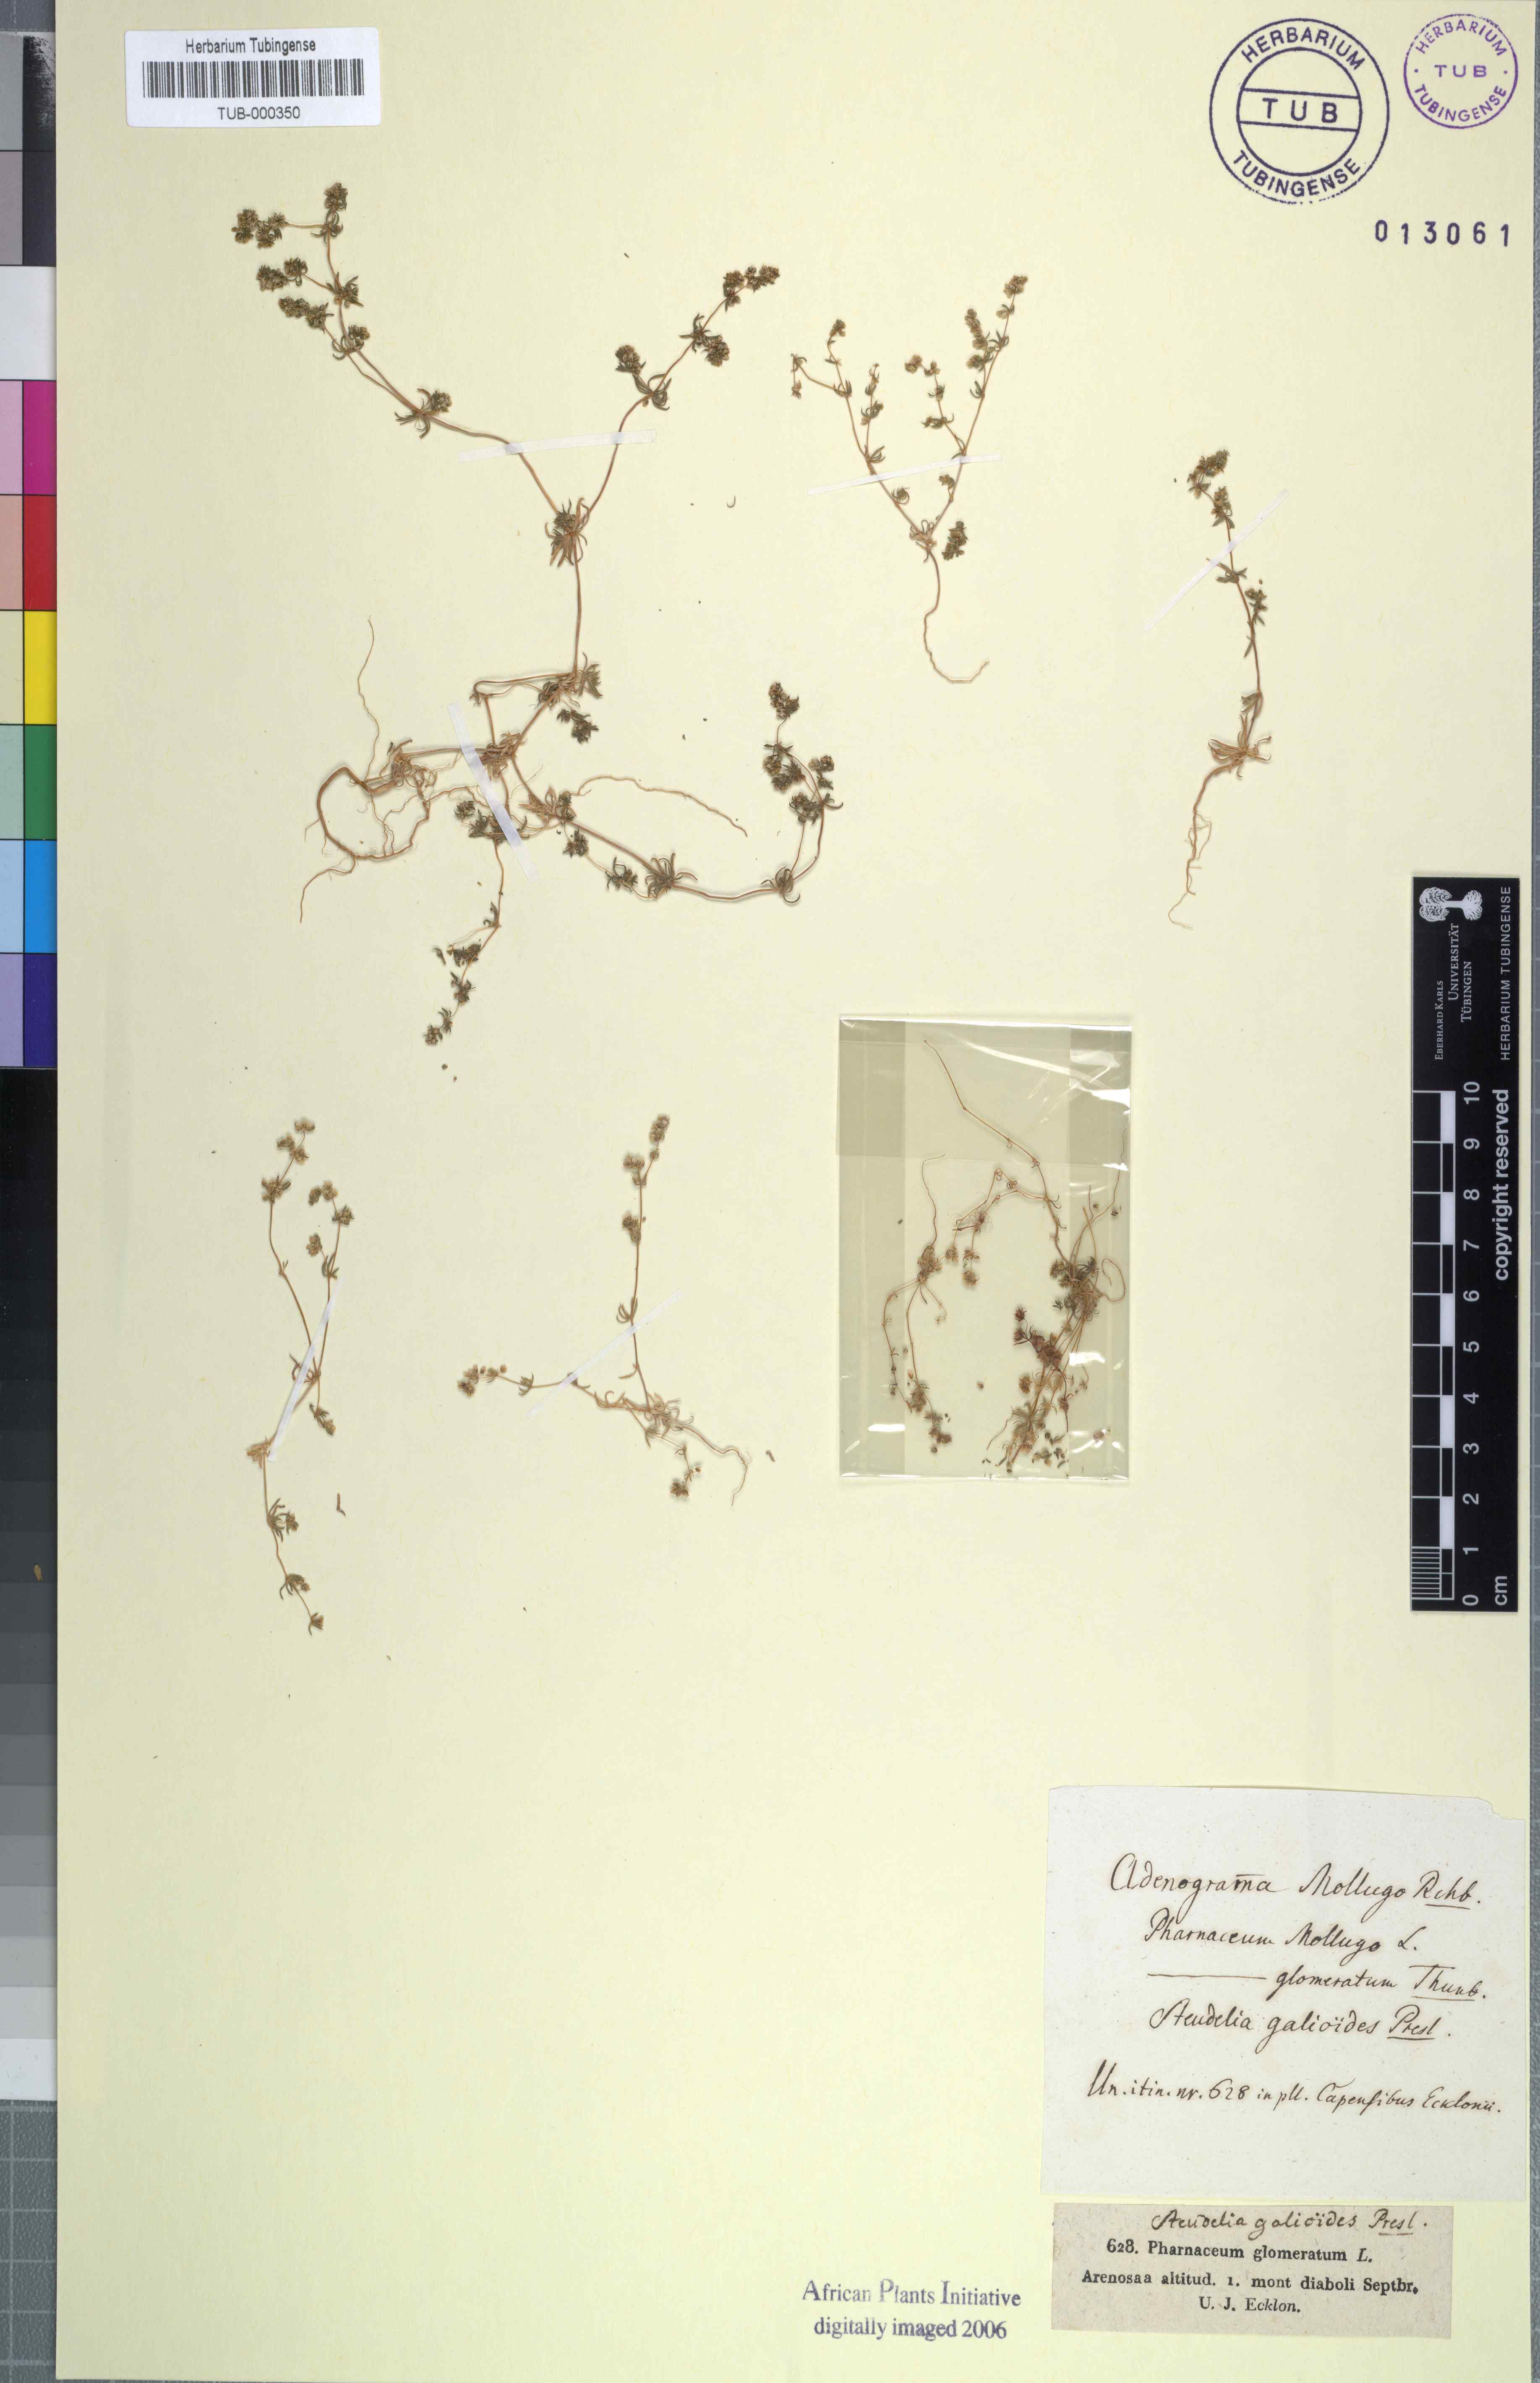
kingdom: Plantae
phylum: Tracheophyta
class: Magnoliopsida
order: Caryophyllales
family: Molluginaceae
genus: Adenogramma
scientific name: Adenogramma glomerata
